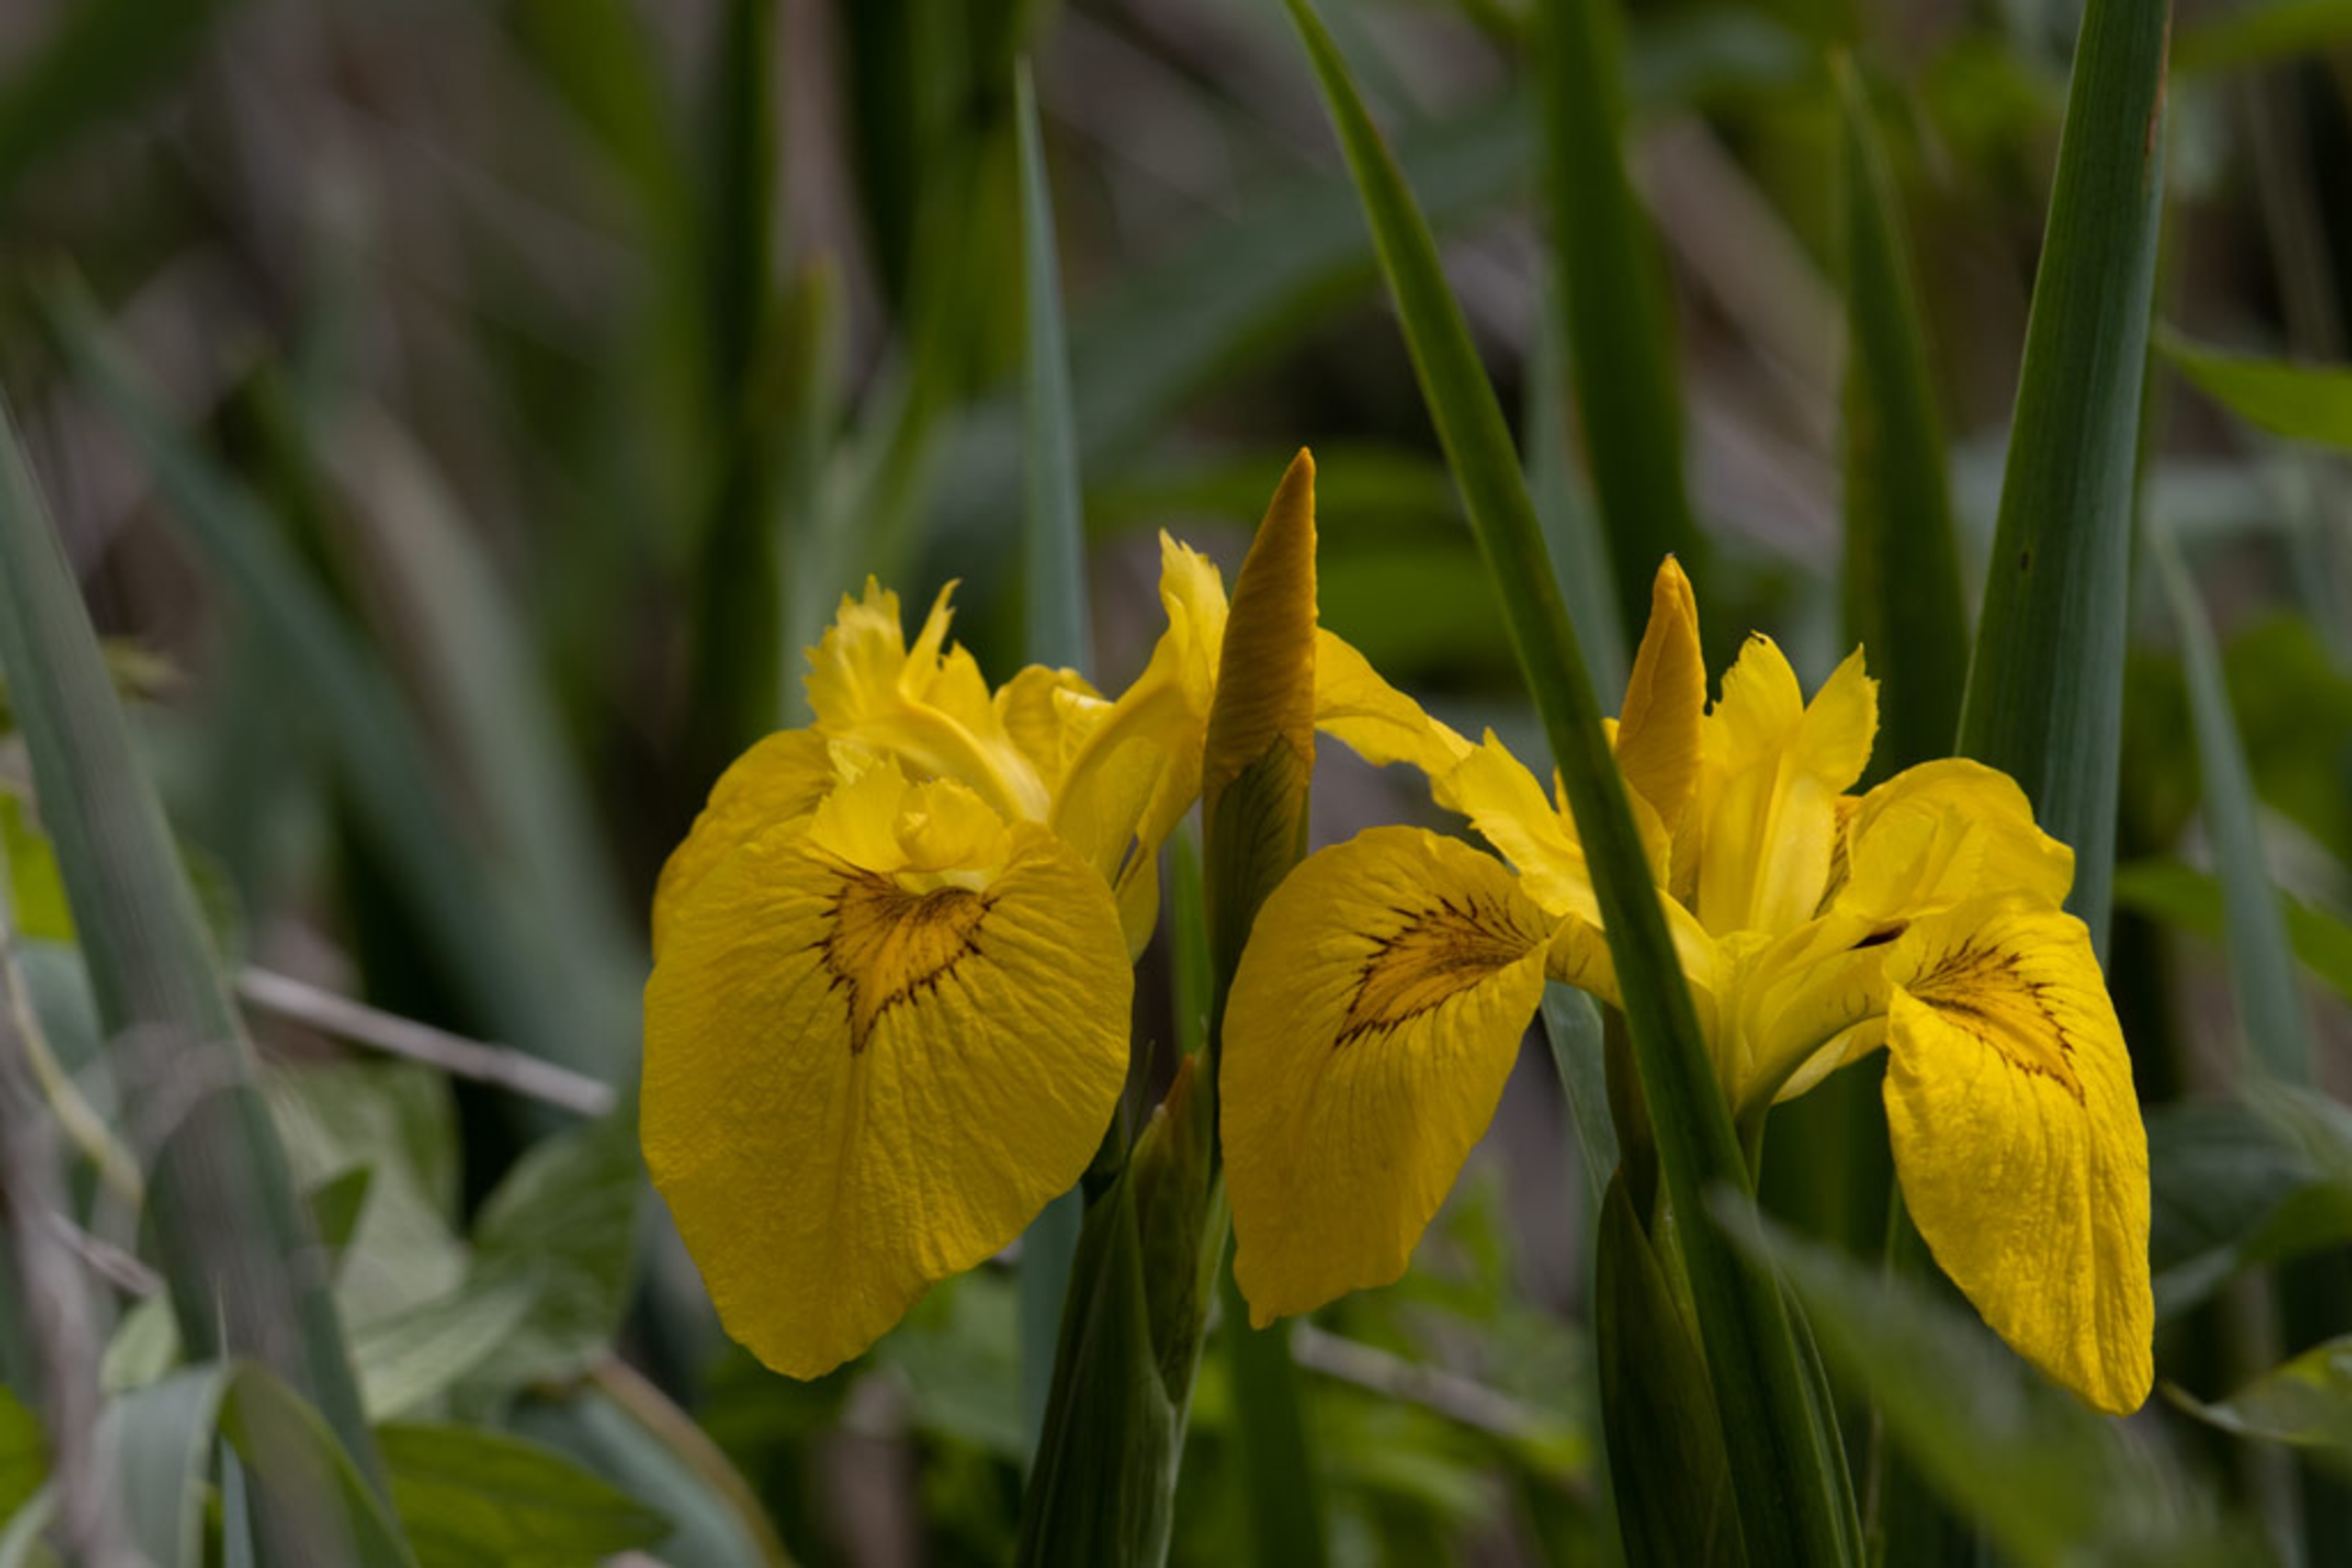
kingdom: Plantae
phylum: Tracheophyta
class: Liliopsida
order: Asparagales
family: Iridaceae
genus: Iris
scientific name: Iris pseudacorus
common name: Gul iris
